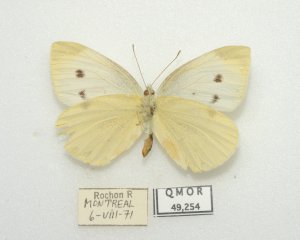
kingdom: Animalia
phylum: Arthropoda
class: Insecta
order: Lepidoptera
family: Pieridae
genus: Pieris
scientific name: Pieris rapae
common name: Cabbage White
